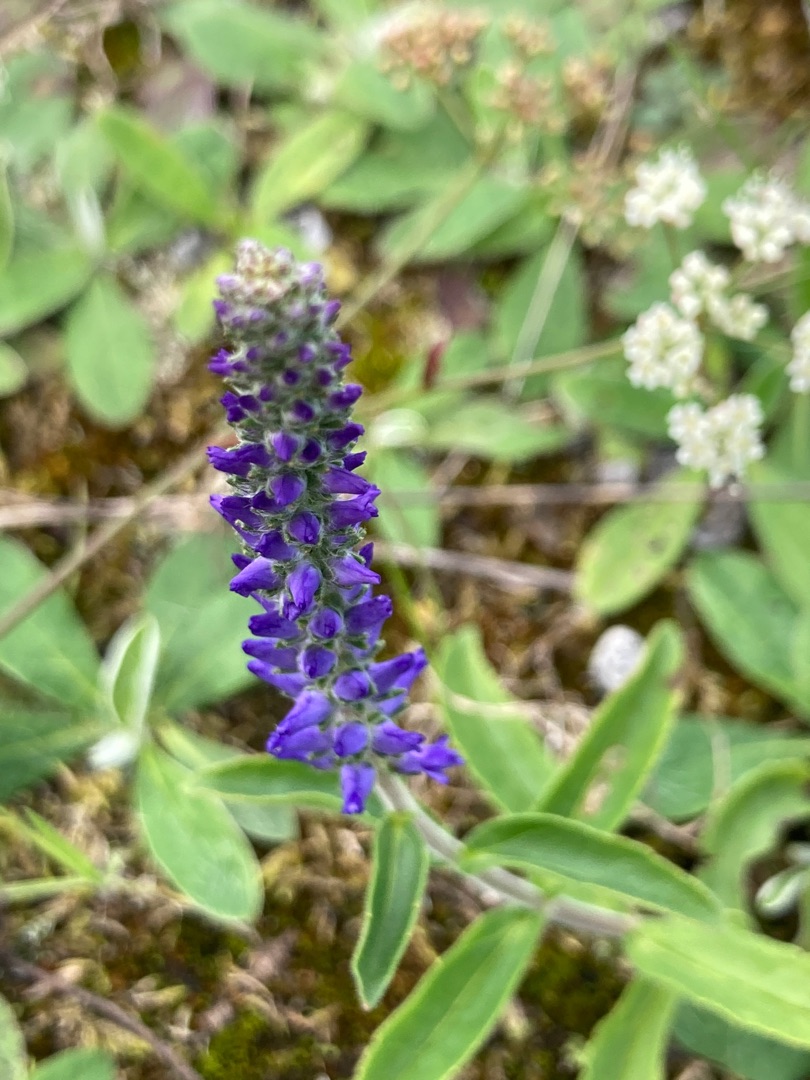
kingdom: Plantae
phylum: Tracheophyta
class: Magnoliopsida
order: Lamiales
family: Plantaginaceae
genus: Veronica
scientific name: Veronica spicata
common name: Aks-ærenpris
